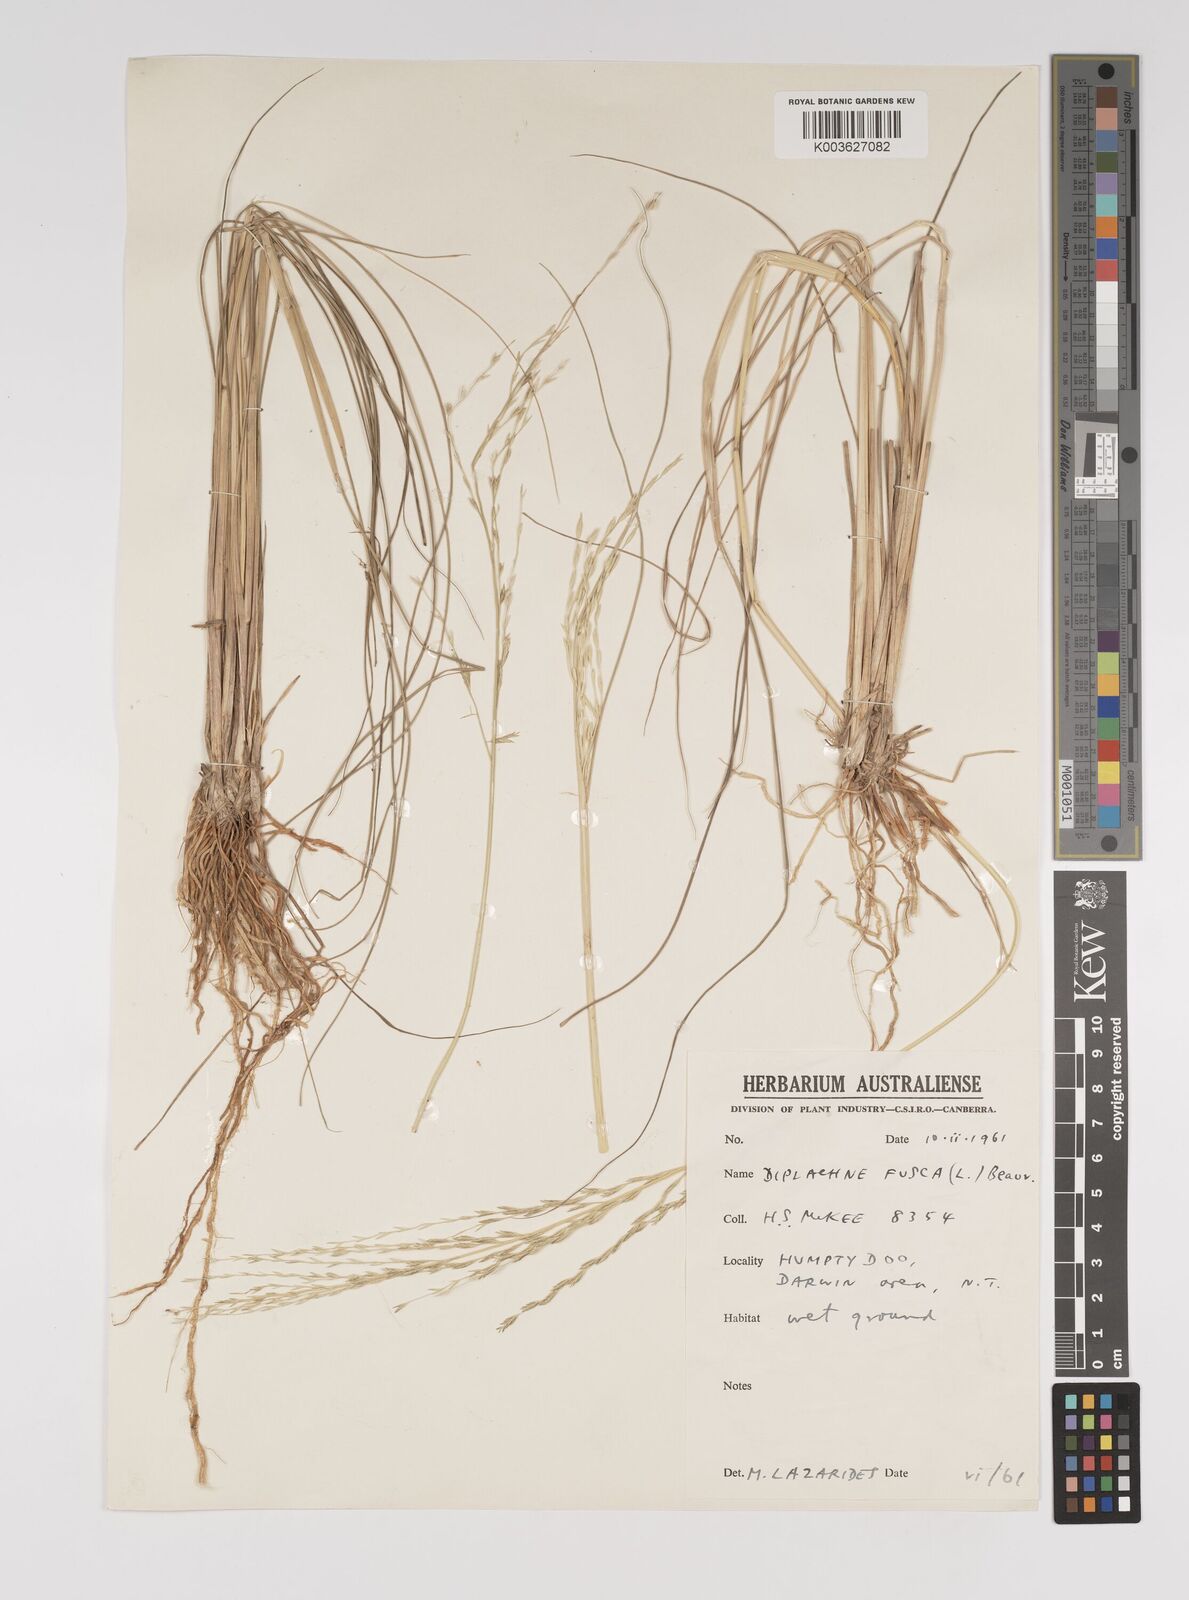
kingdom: Plantae
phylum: Tracheophyta
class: Liliopsida
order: Poales
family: Poaceae
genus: Diplachne
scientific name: Diplachne fusca
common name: Brown beetle grass
